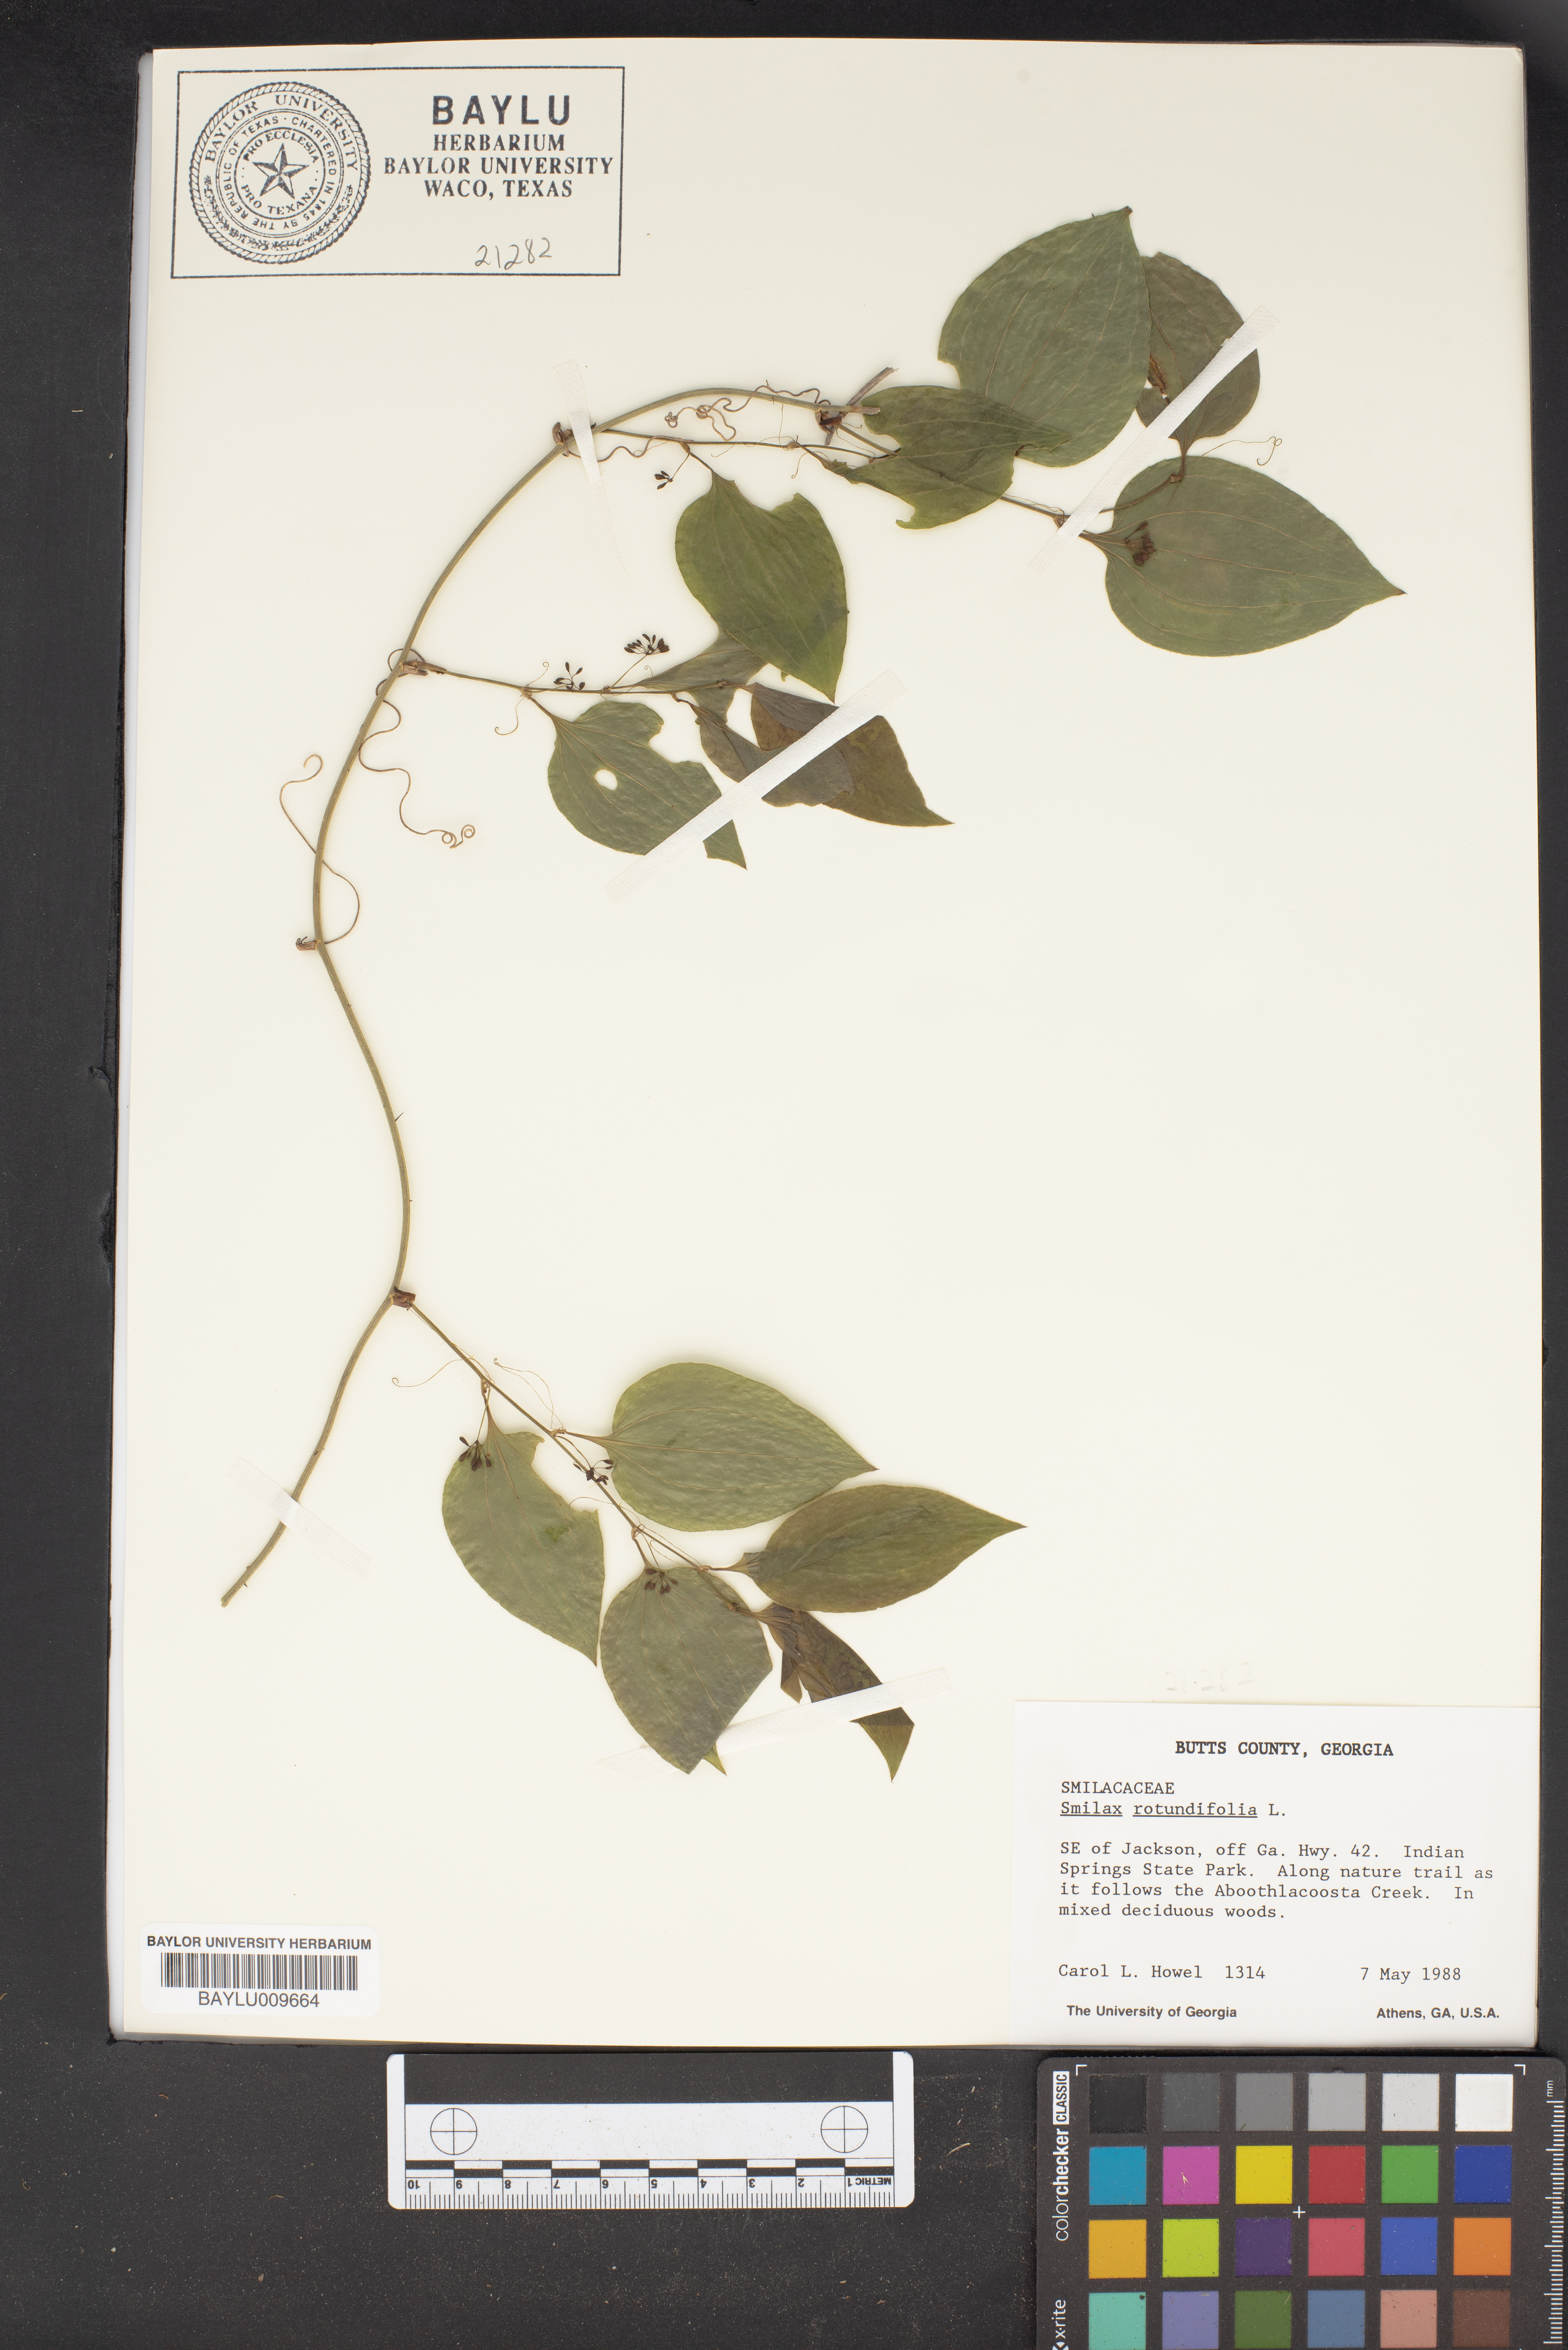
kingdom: Plantae
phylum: Tracheophyta
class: Liliopsida
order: Liliales
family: Smilacaceae
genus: Smilax
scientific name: Smilax rotundifolia
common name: Bullbriar
